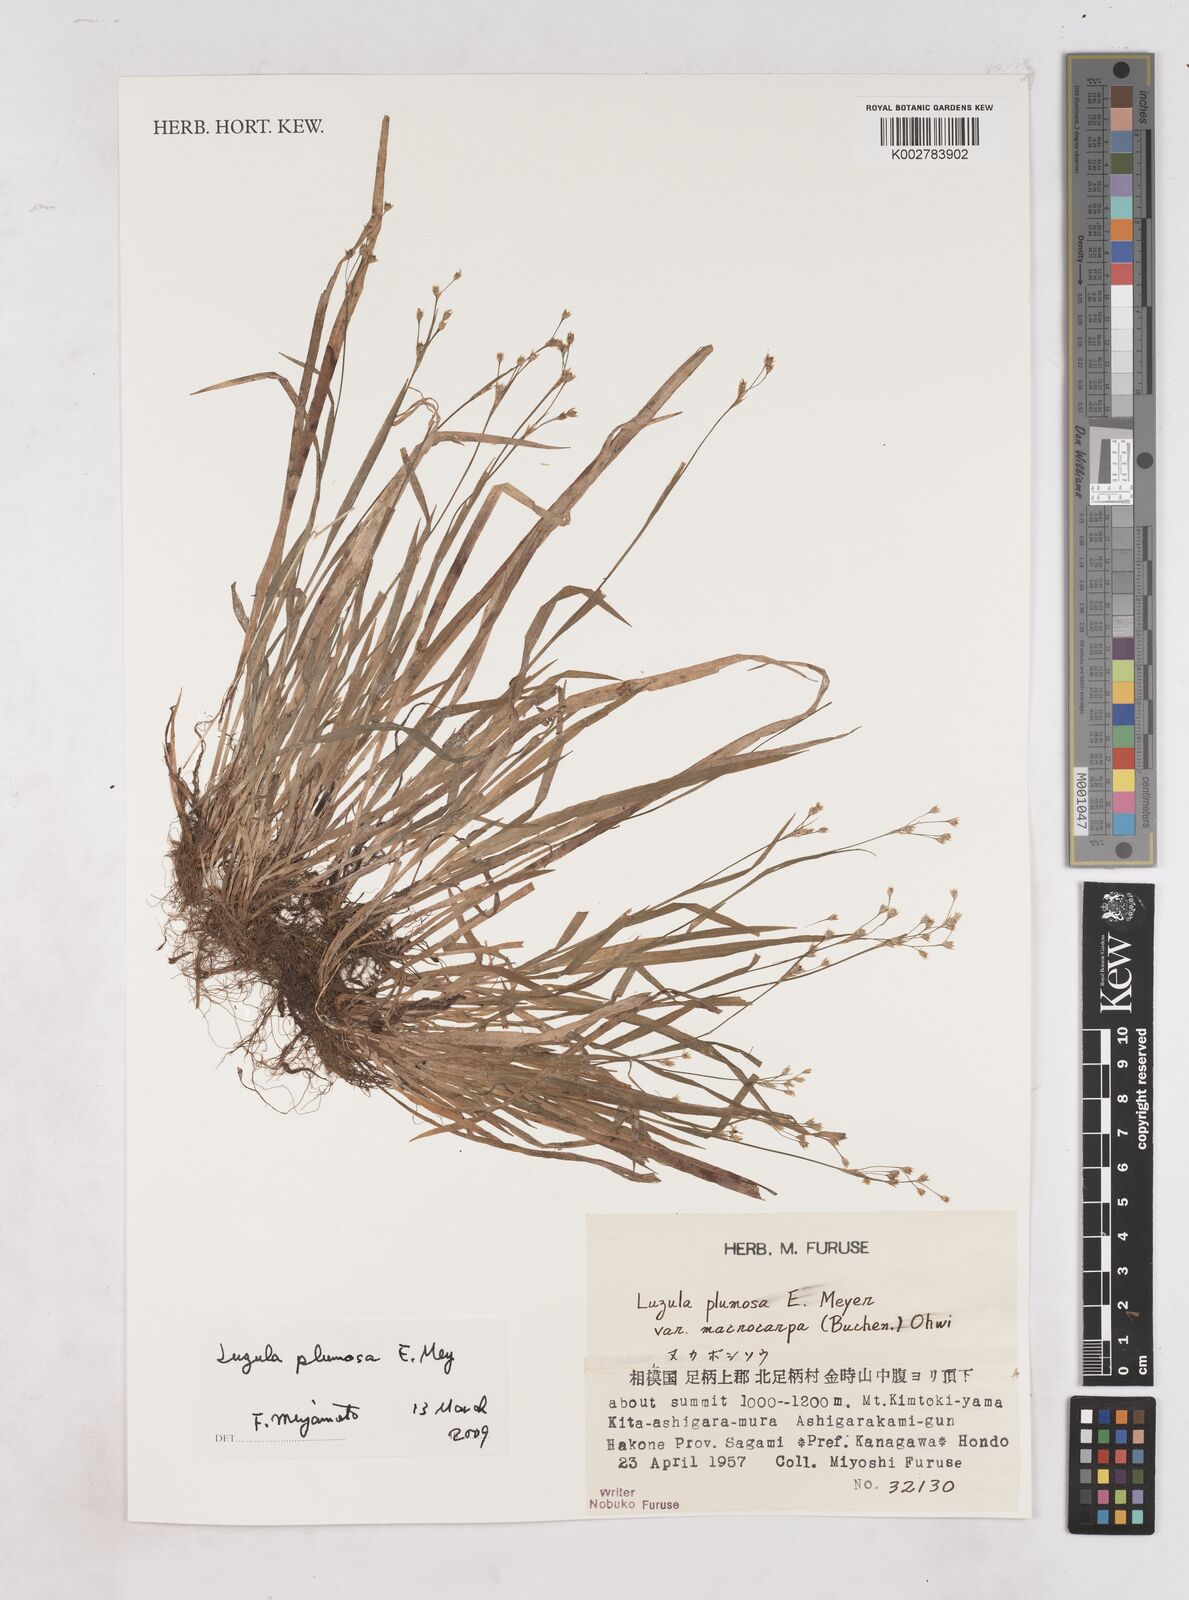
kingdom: Plantae
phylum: Tracheophyta
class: Liliopsida
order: Poales
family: Juncaceae
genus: Luzula
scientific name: Luzula plumosa
